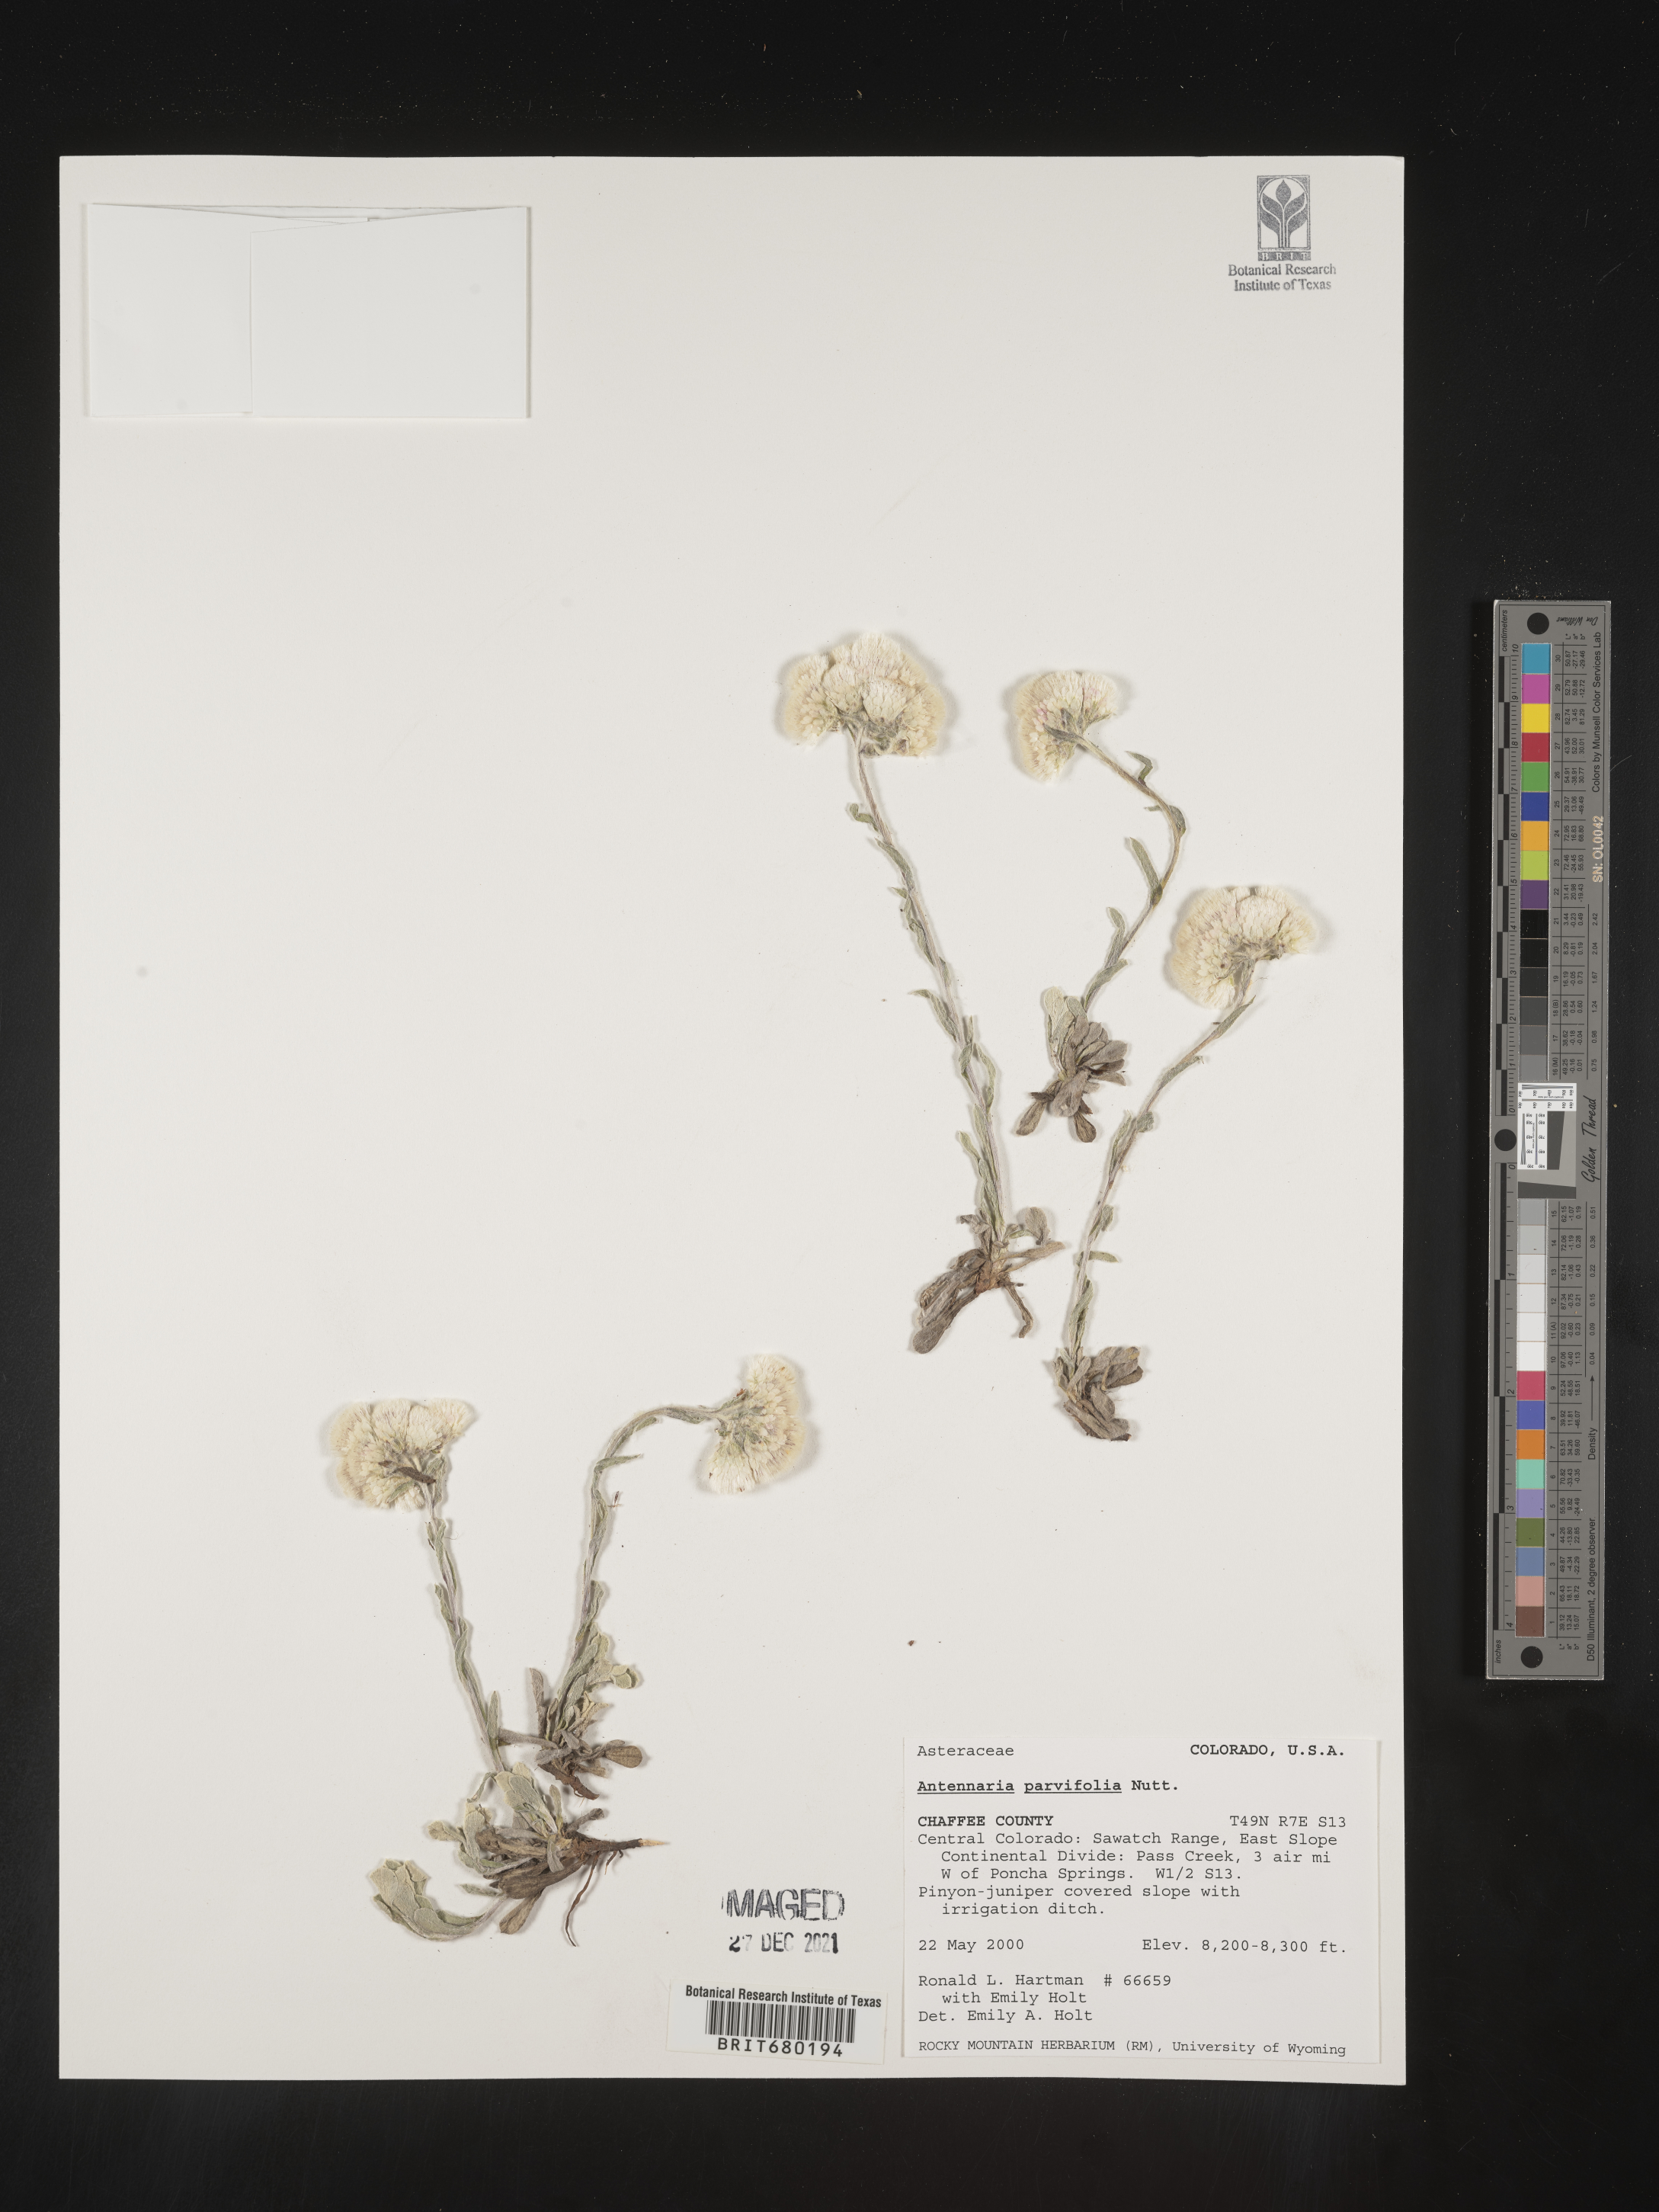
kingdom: Plantae
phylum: Tracheophyta
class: Magnoliopsida
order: Asterales
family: Asteraceae
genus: Antennaria
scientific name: Antennaria plantaginifolia
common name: Plantain-leaved pussytoes
